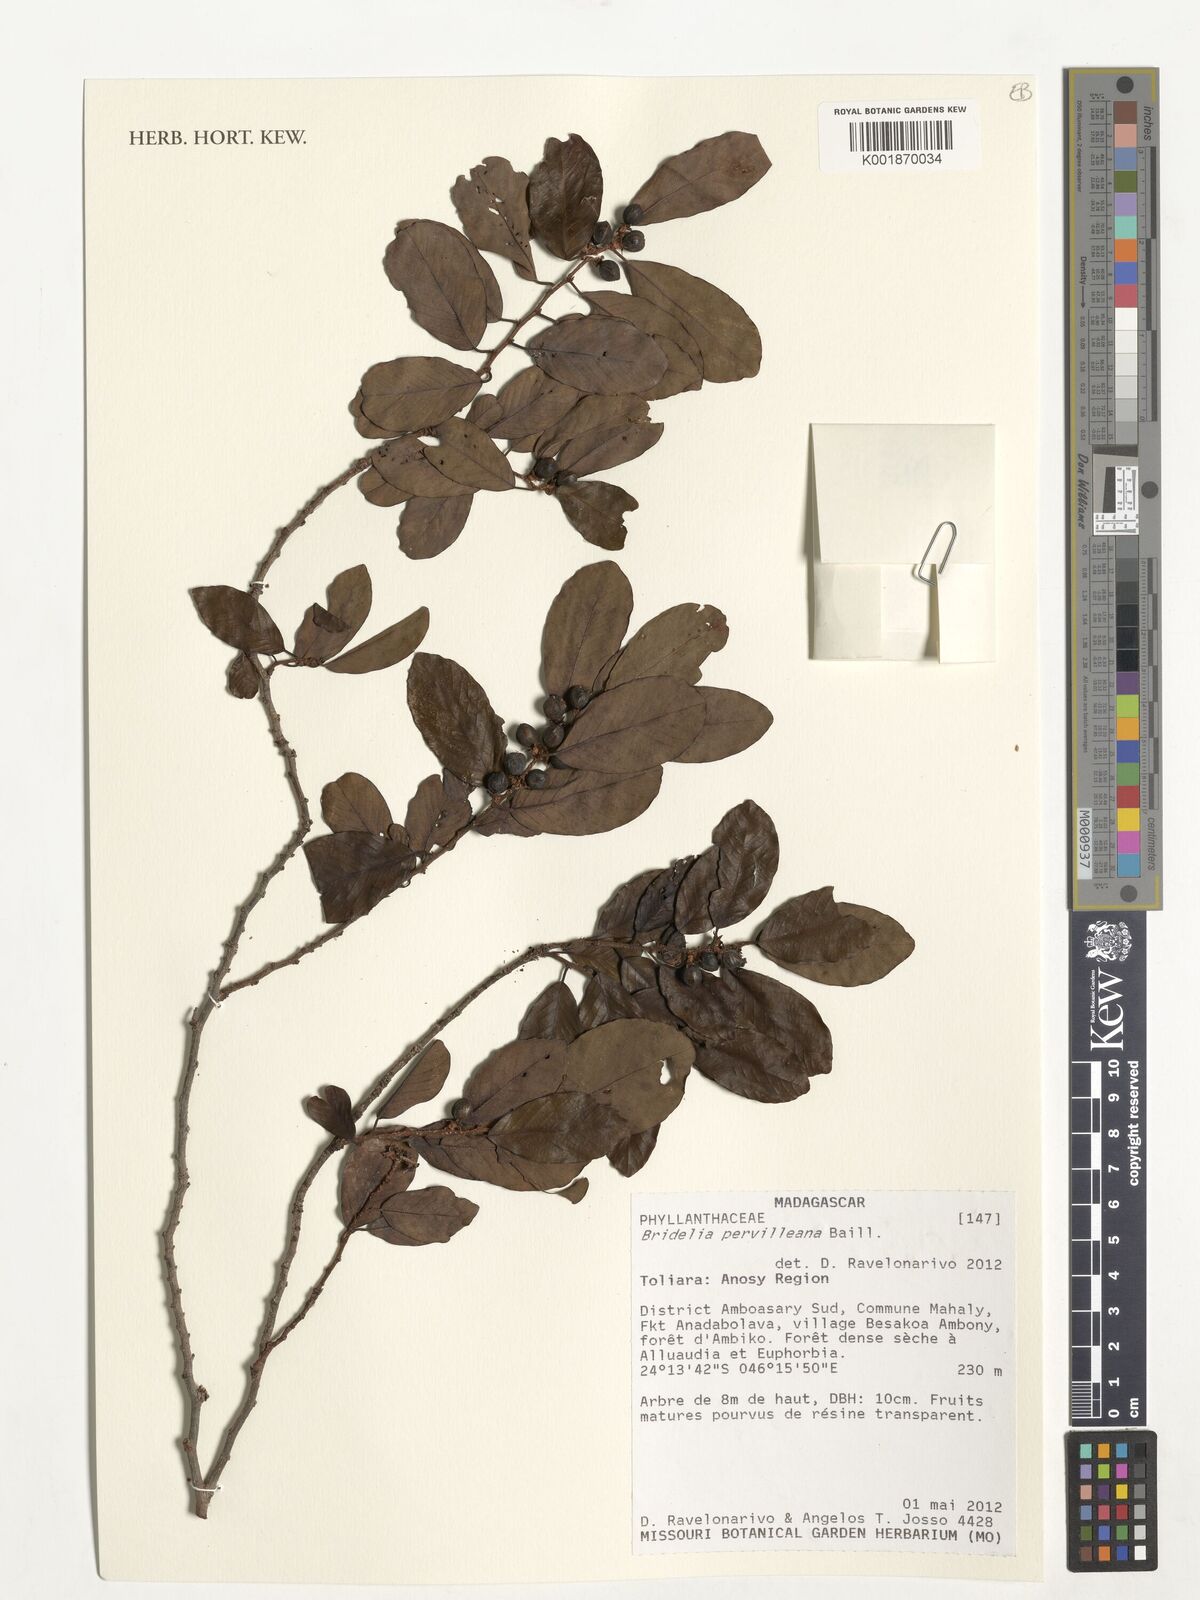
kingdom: Plantae
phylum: Tracheophyta
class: Magnoliopsida
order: Malpighiales
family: Phyllanthaceae
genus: Bridelia
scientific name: Bridelia pervilleana
